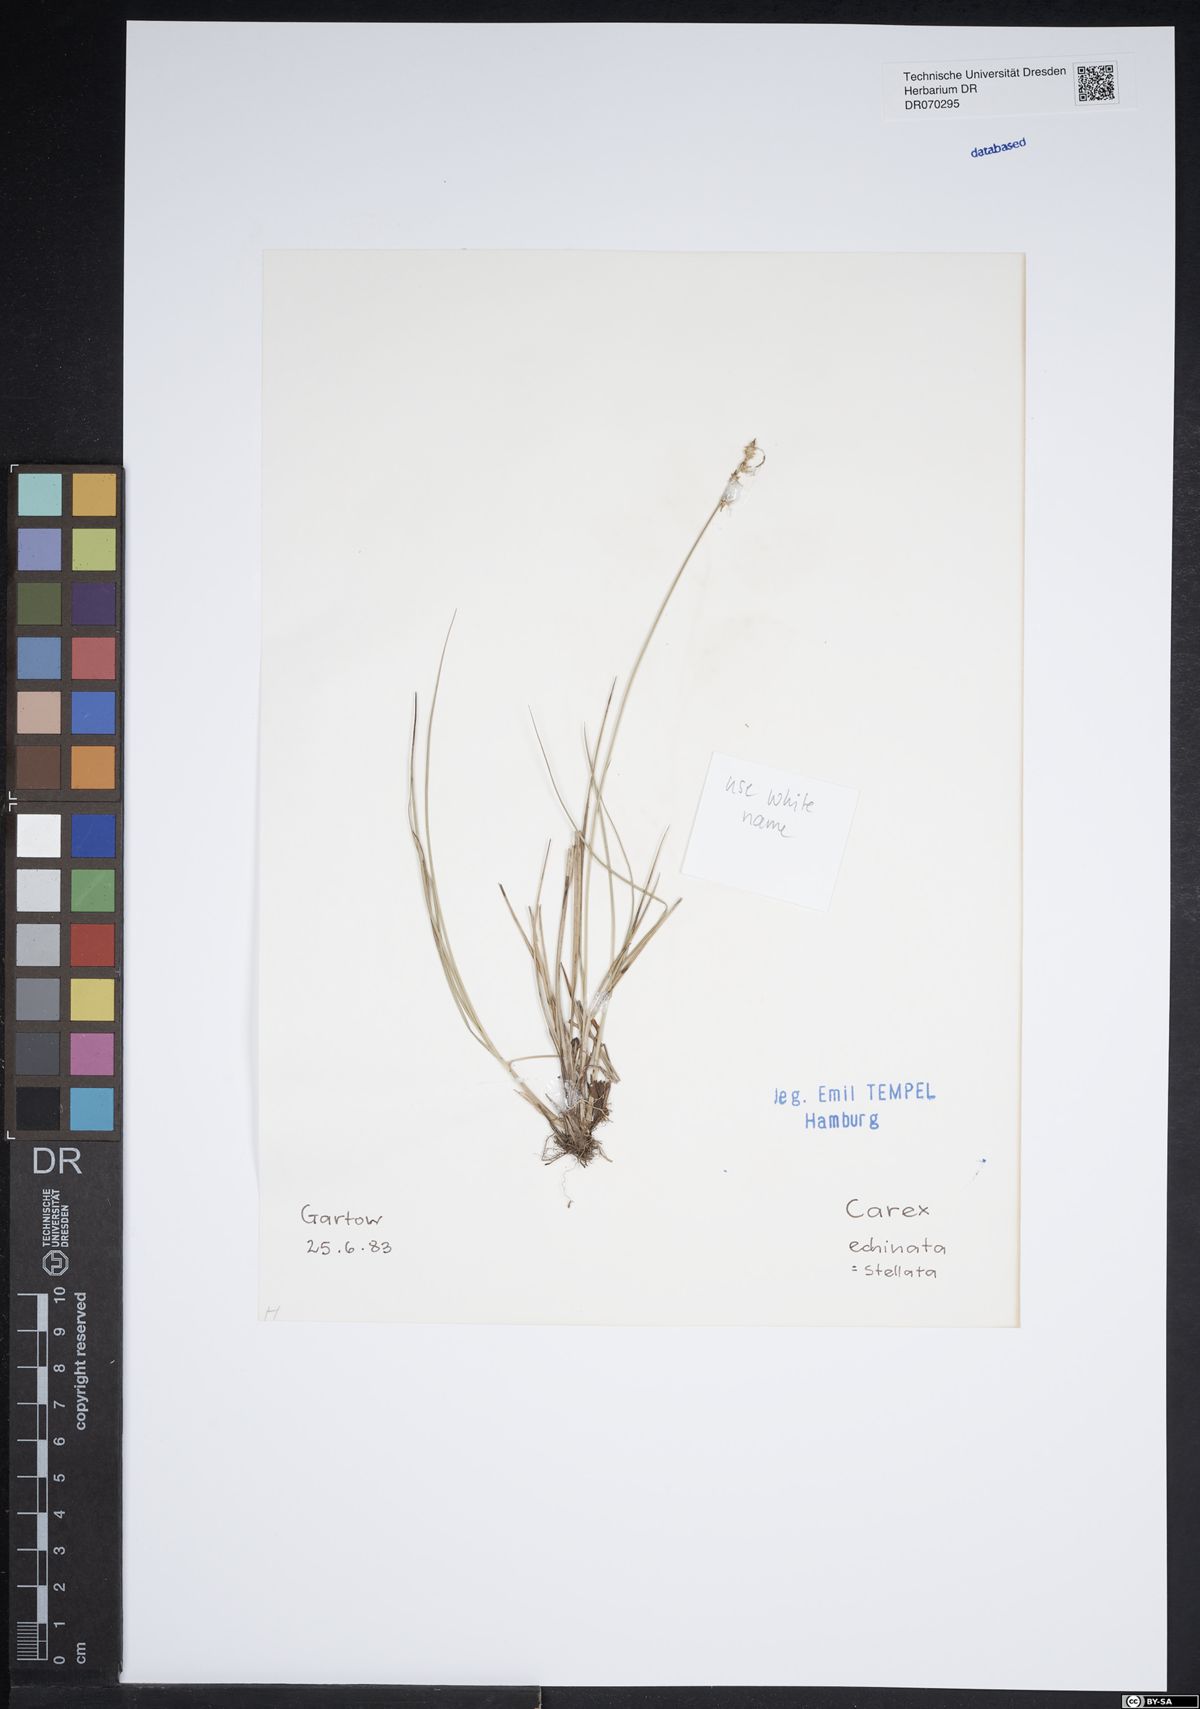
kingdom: Plantae
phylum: Tracheophyta
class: Liliopsida
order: Poales
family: Cyperaceae
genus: Carex
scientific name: Carex echinata
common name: Star sedge
